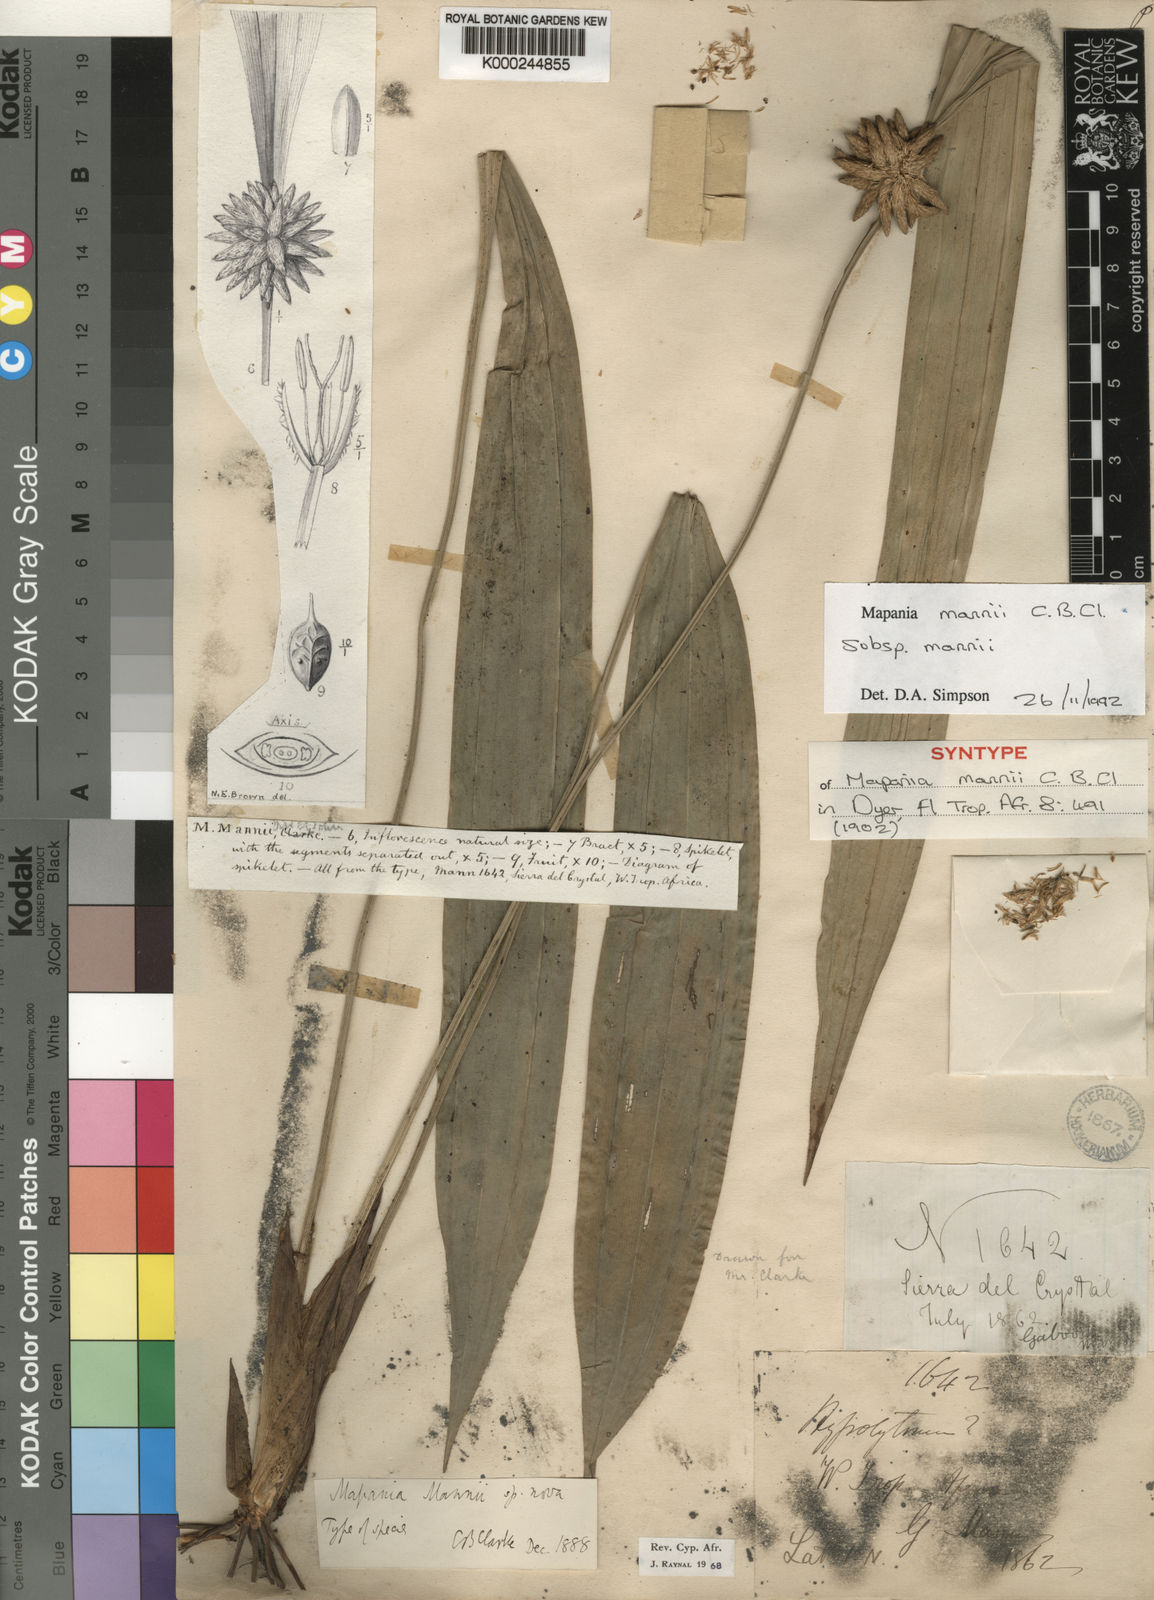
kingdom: Plantae
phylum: Tracheophyta
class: Liliopsida
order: Poales
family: Cyperaceae
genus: Mapania
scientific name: Mapania mannii
